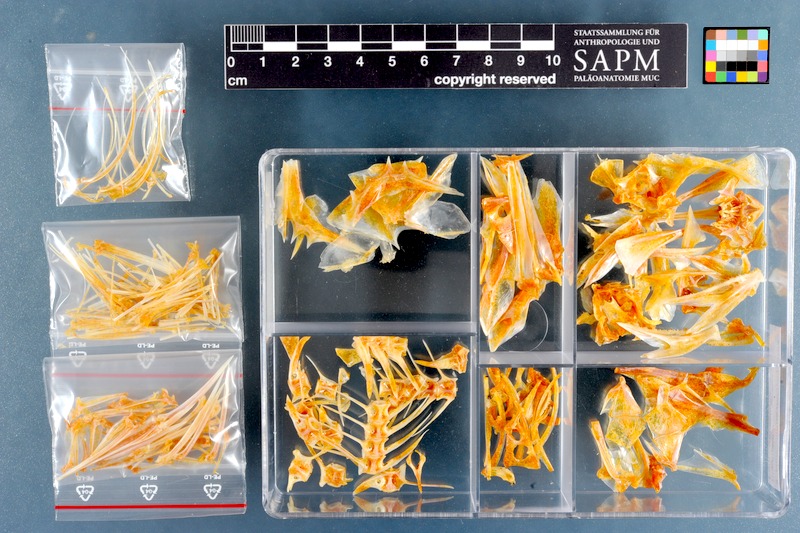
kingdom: Animalia
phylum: Chordata
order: Scorpaeniformes
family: Sebastidae
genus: Helicolenus
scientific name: Helicolenus dactylopterus
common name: Blackbelly rosefish
